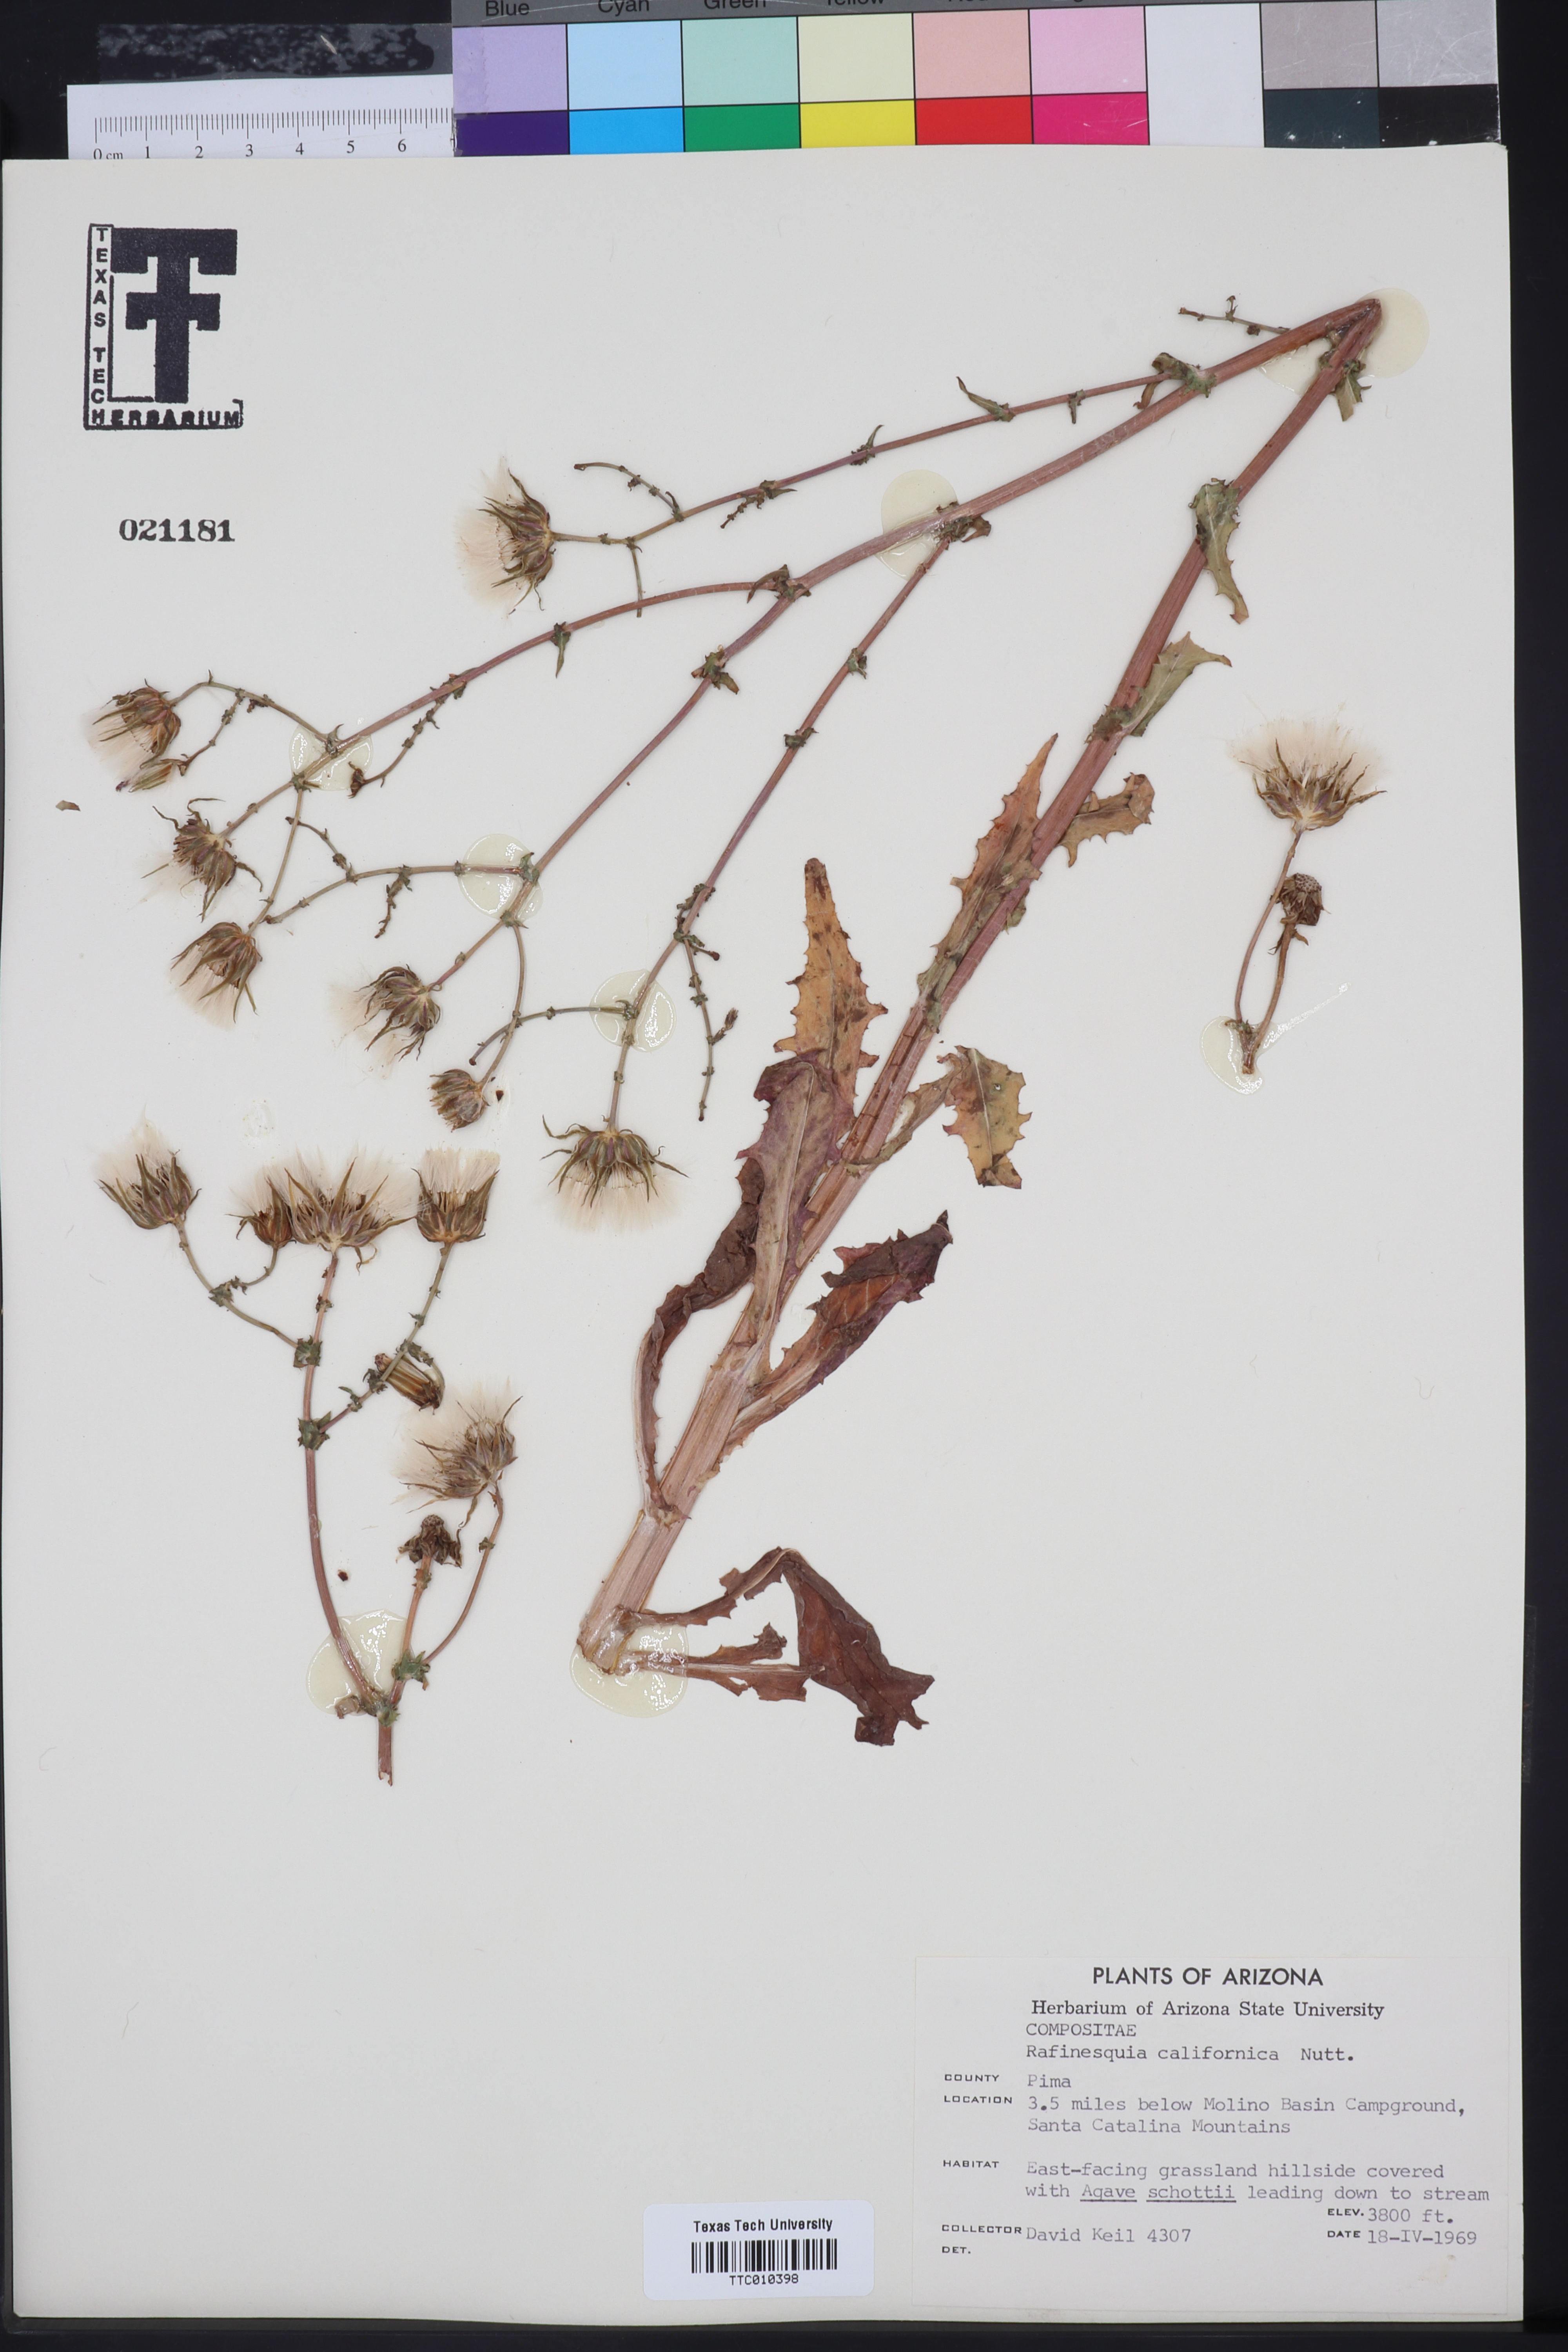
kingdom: Plantae
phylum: Tracheophyta
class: Magnoliopsida
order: Asterales
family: Asteraceae
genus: Rafinesquia
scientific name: Rafinesquia californica
